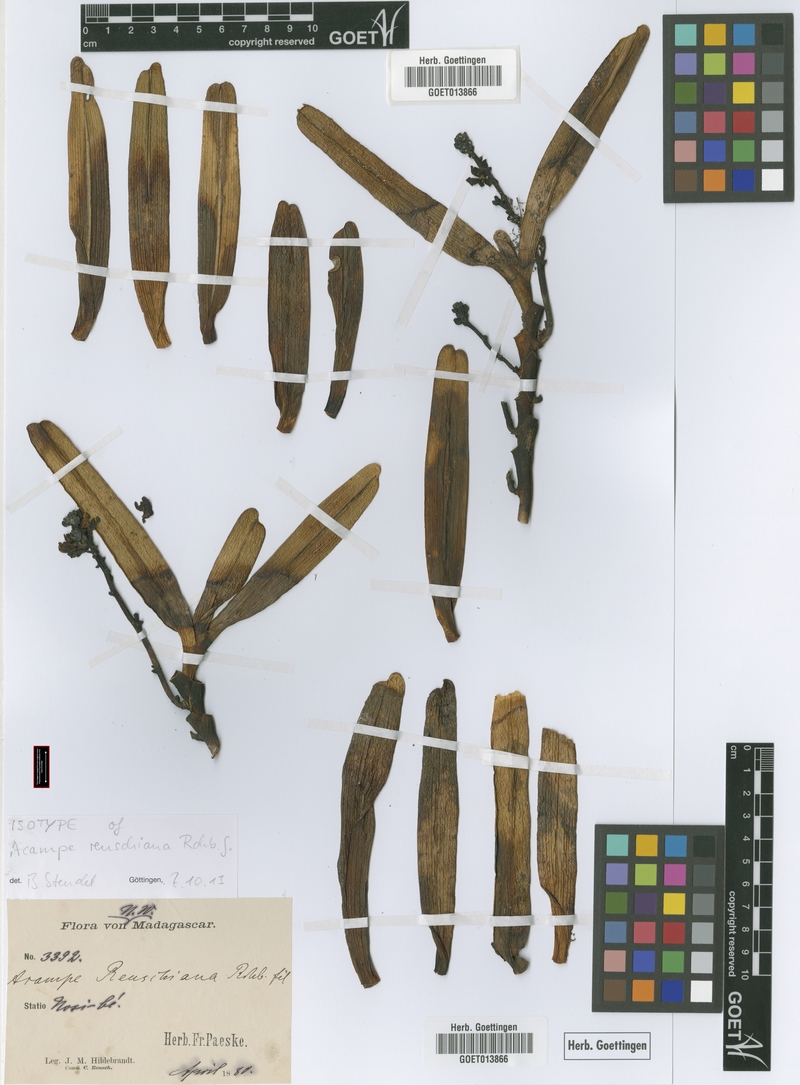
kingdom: Plantae
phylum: Tracheophyta
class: Liliopsida
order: Asparagales
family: Orchidaceae
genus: Acampe
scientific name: Acampe pachyglossa
